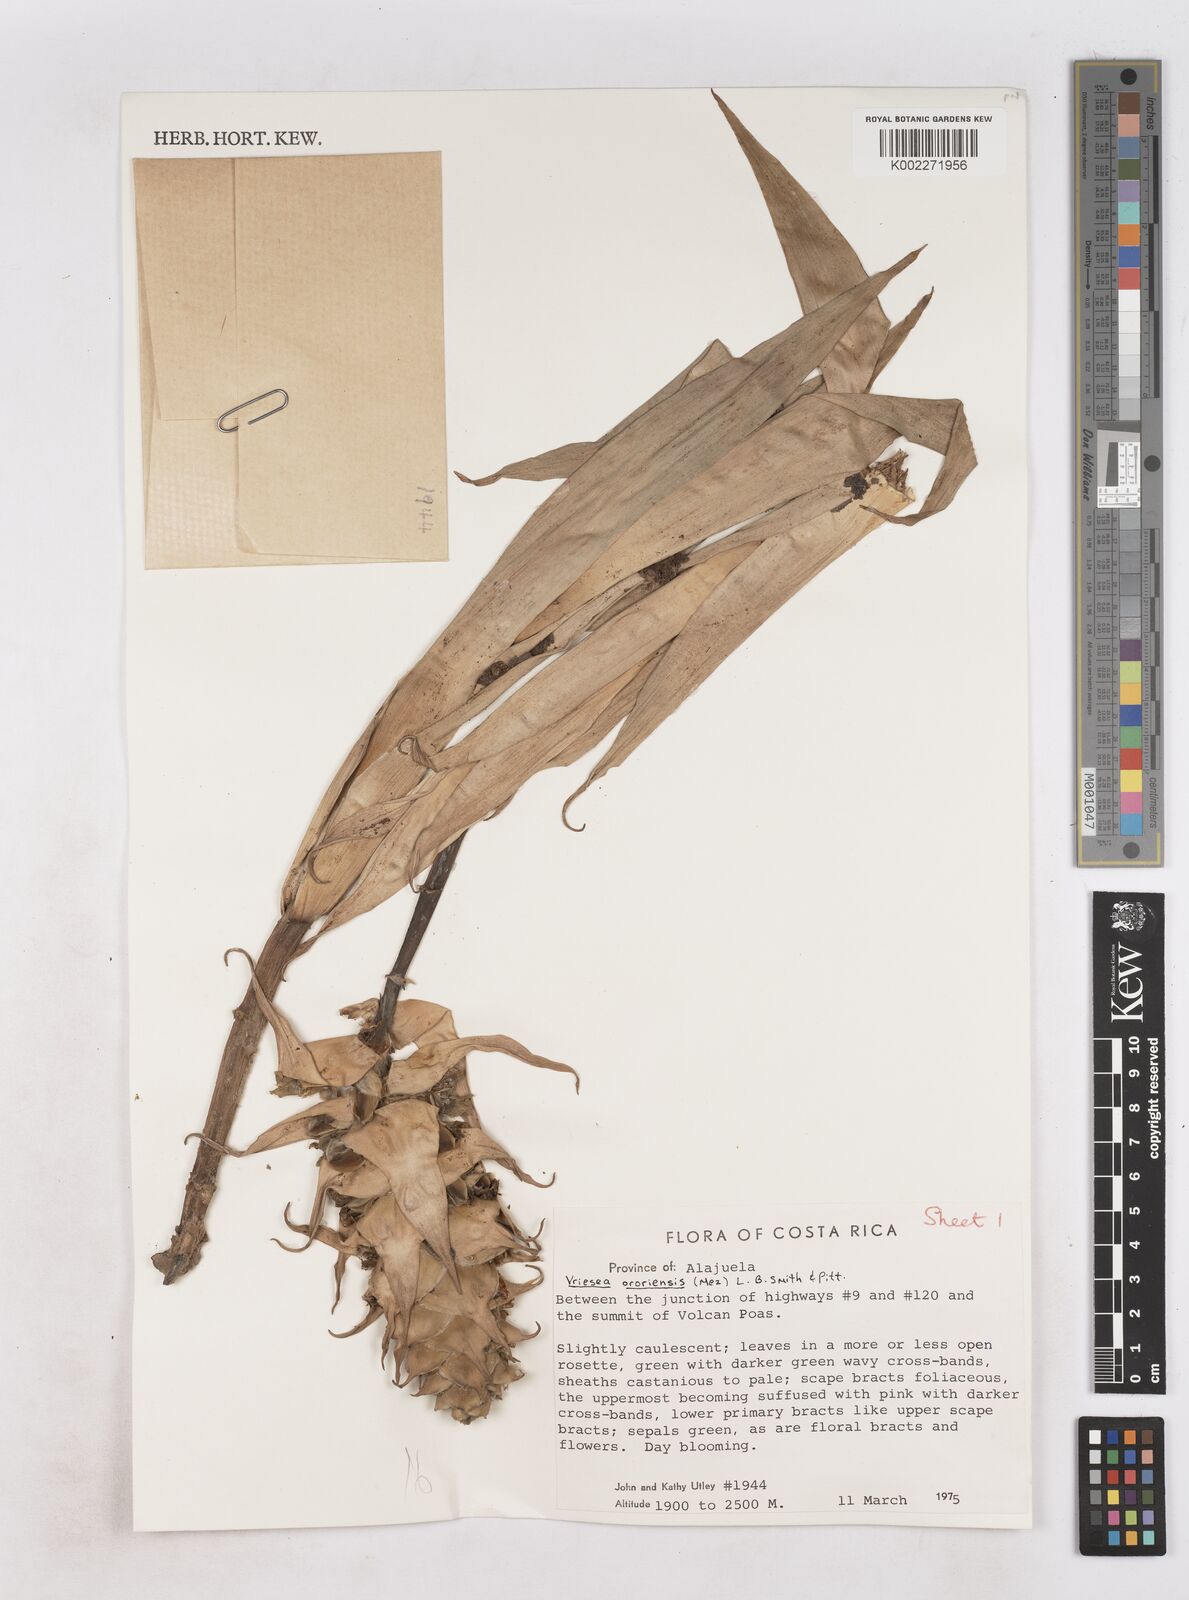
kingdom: Plantae
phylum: Tracheophyta
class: Liliopsida
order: Poales
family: Bromeliaceae
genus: Werauhia
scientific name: Werauhia ororiensis
